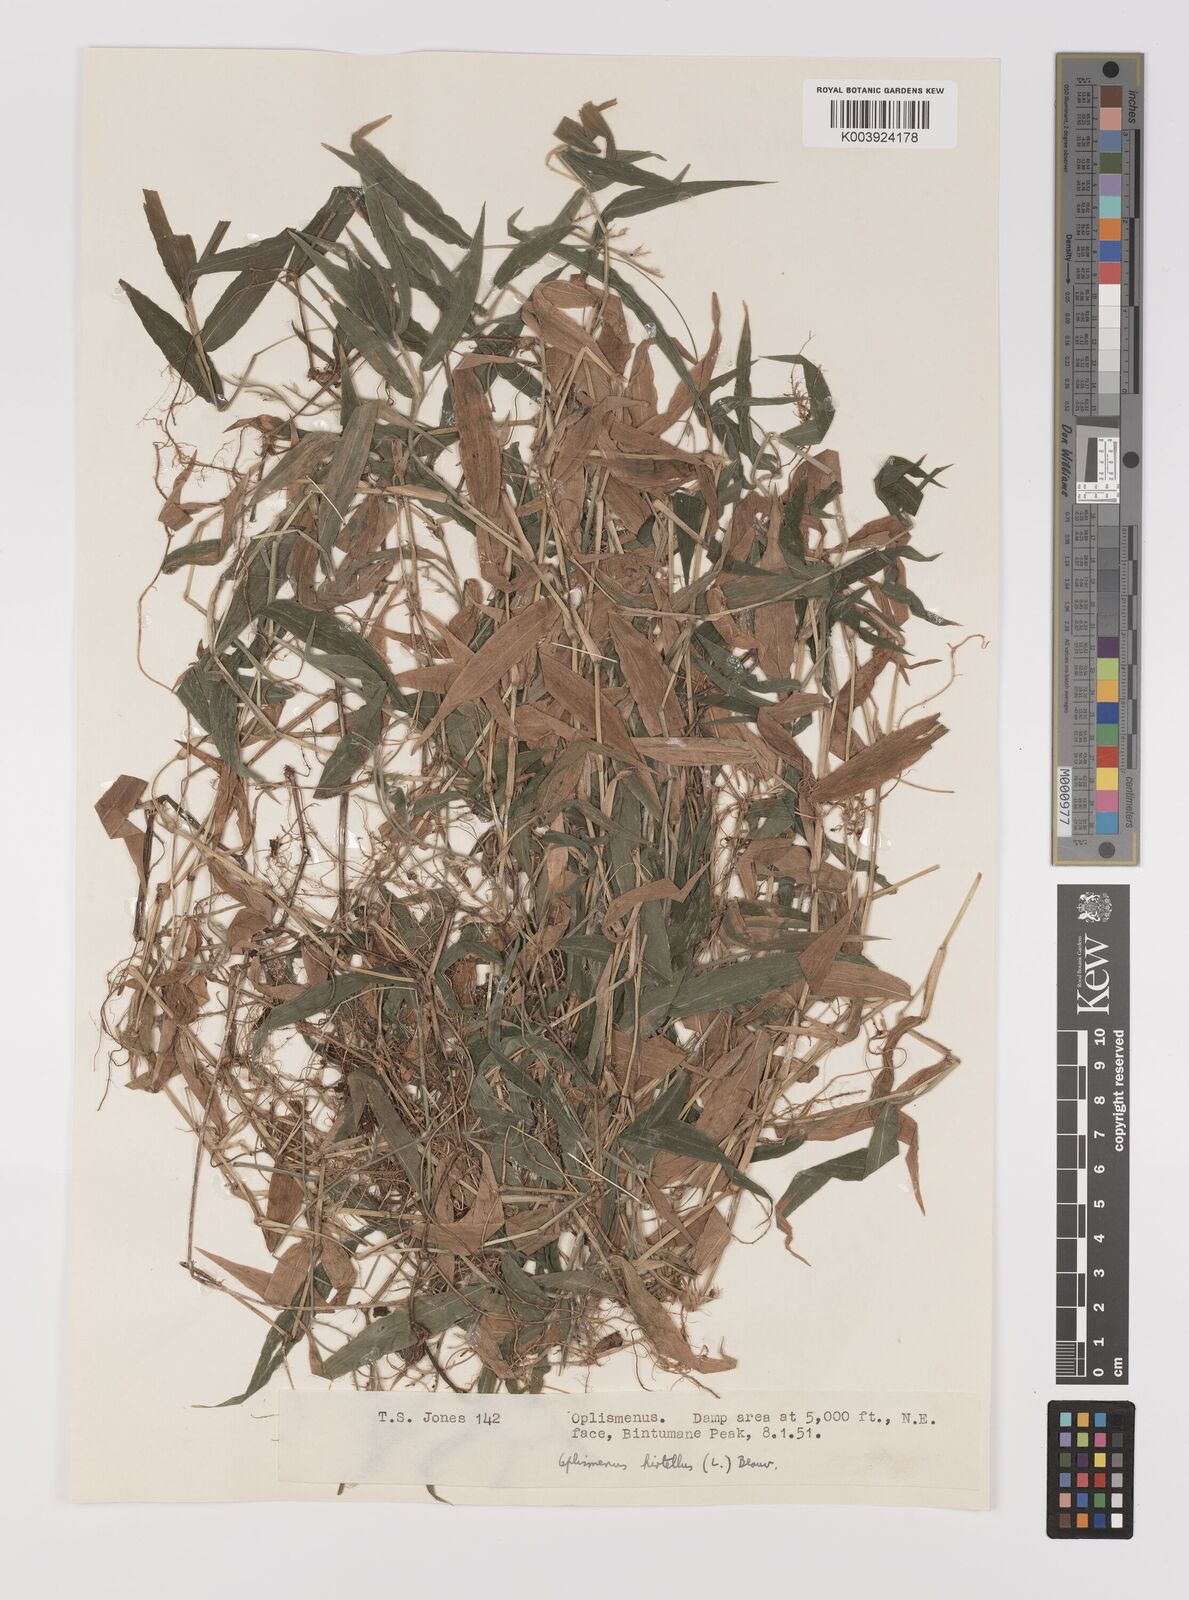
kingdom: Plantae
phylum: Tracheophyta
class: Liliopsida
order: Poales
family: Poaceae
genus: Oplismenus
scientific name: Oplismenus hirtellus
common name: Basketgrass
